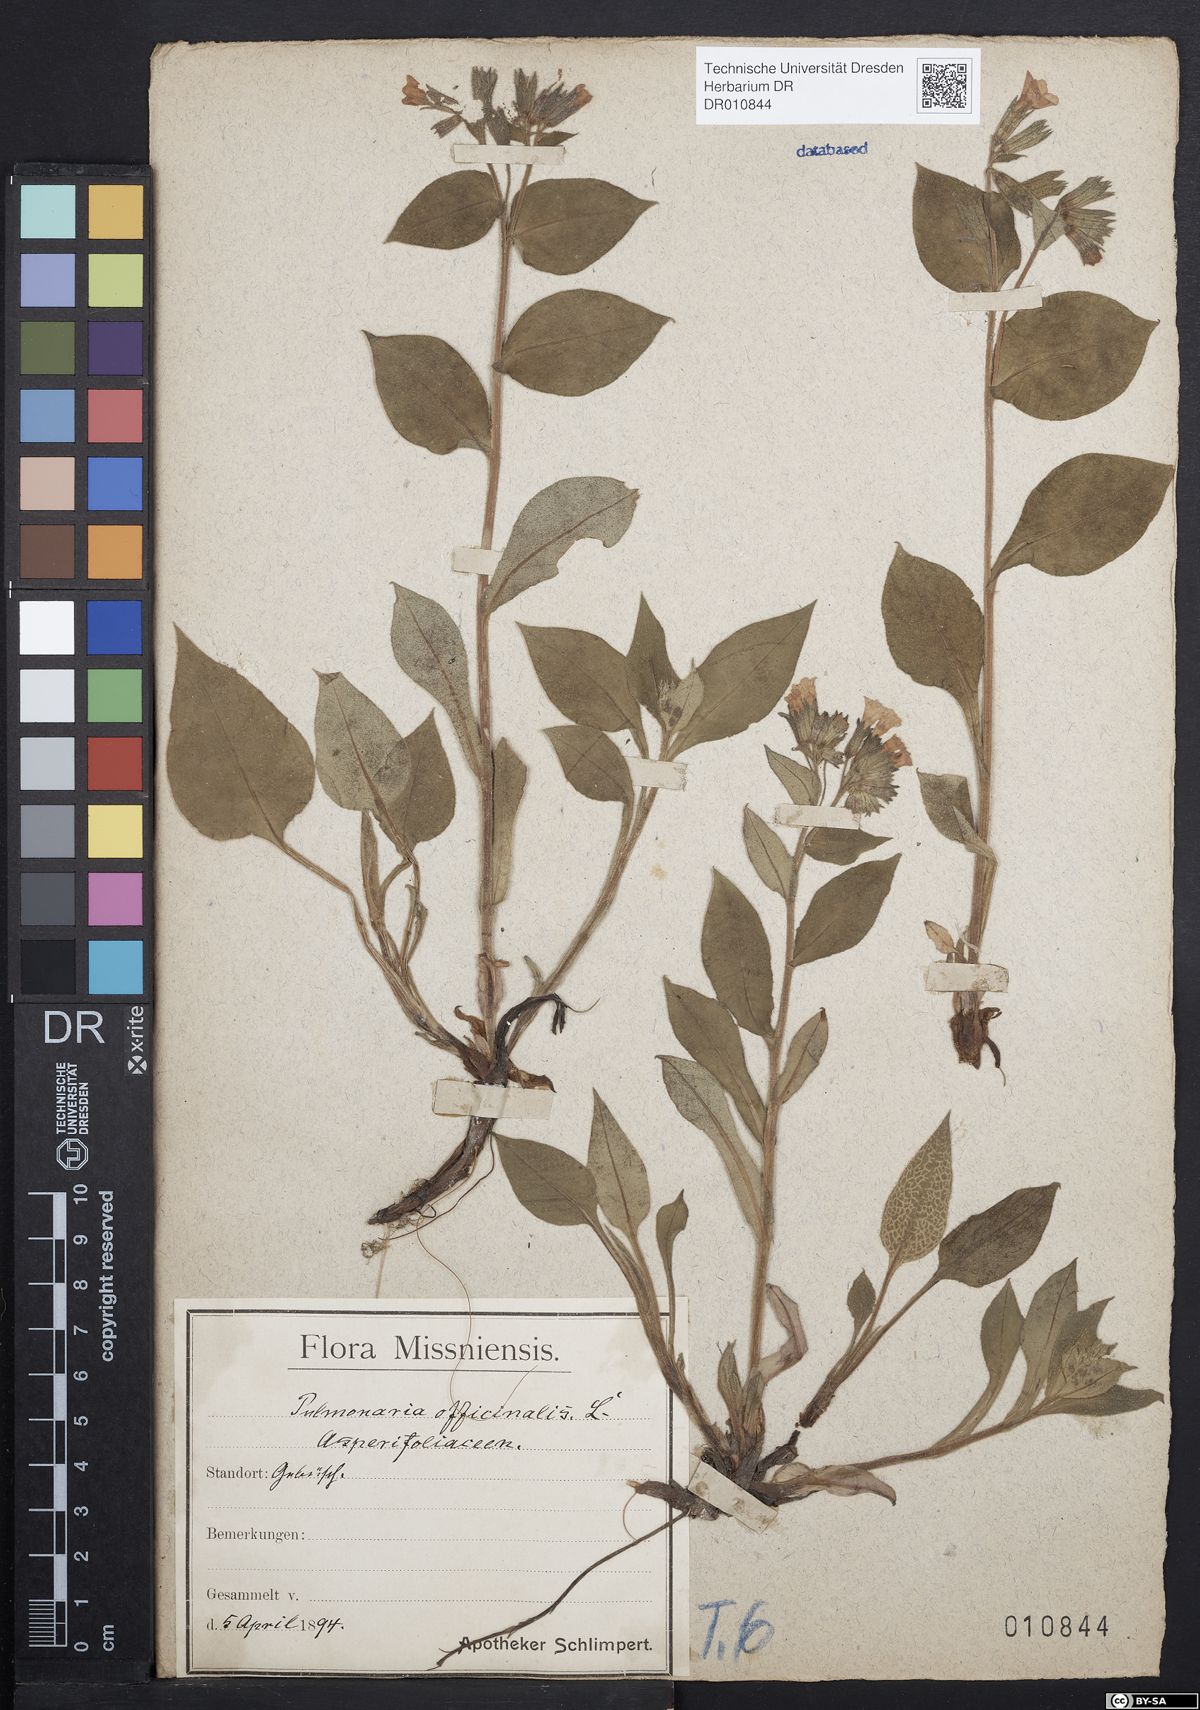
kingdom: Plantae
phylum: Tracheophyta
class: Magnoliopsida
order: Boraginales
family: Boraginaceae
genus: Pulmonaria
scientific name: Pulmonaria obscura
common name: Suffolk lungwort
